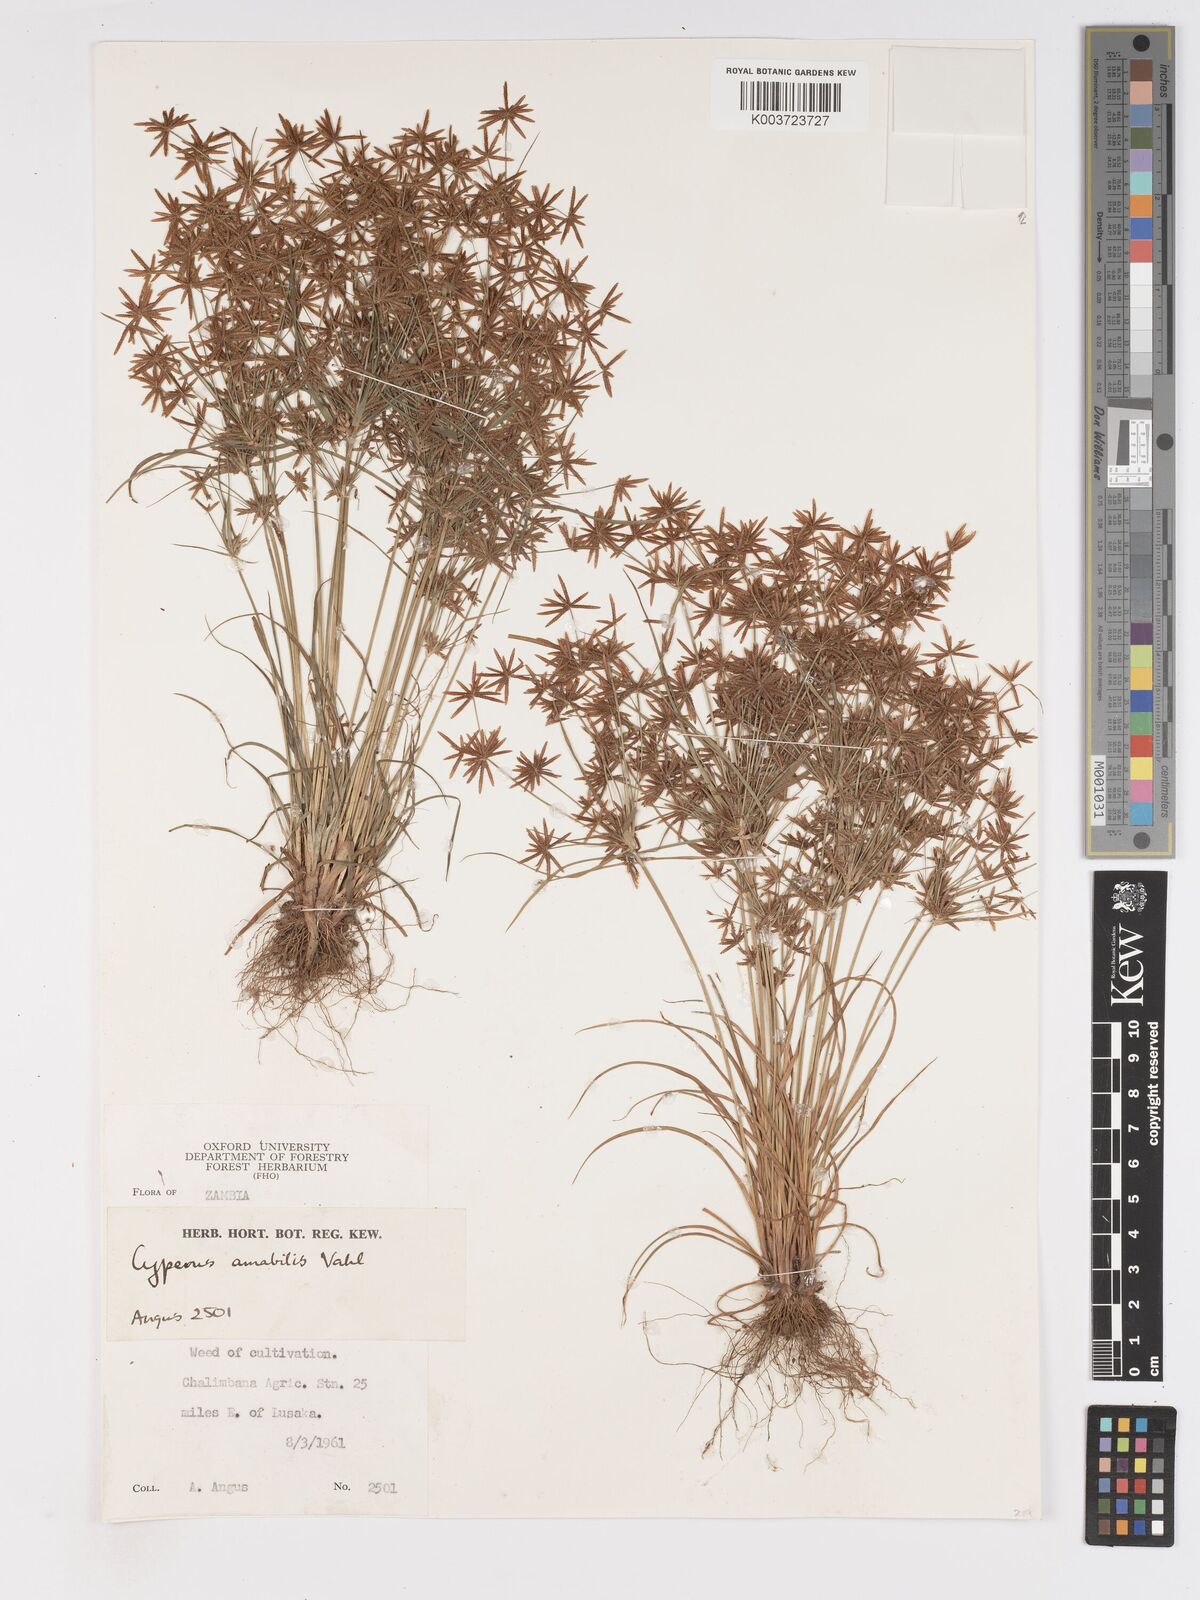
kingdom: Plantae
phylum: Tracheophyta
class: Liliopsida
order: Poales
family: Cyperaceae
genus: Cyperus
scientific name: Cyperus amabilis
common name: Foothill flat sedge
